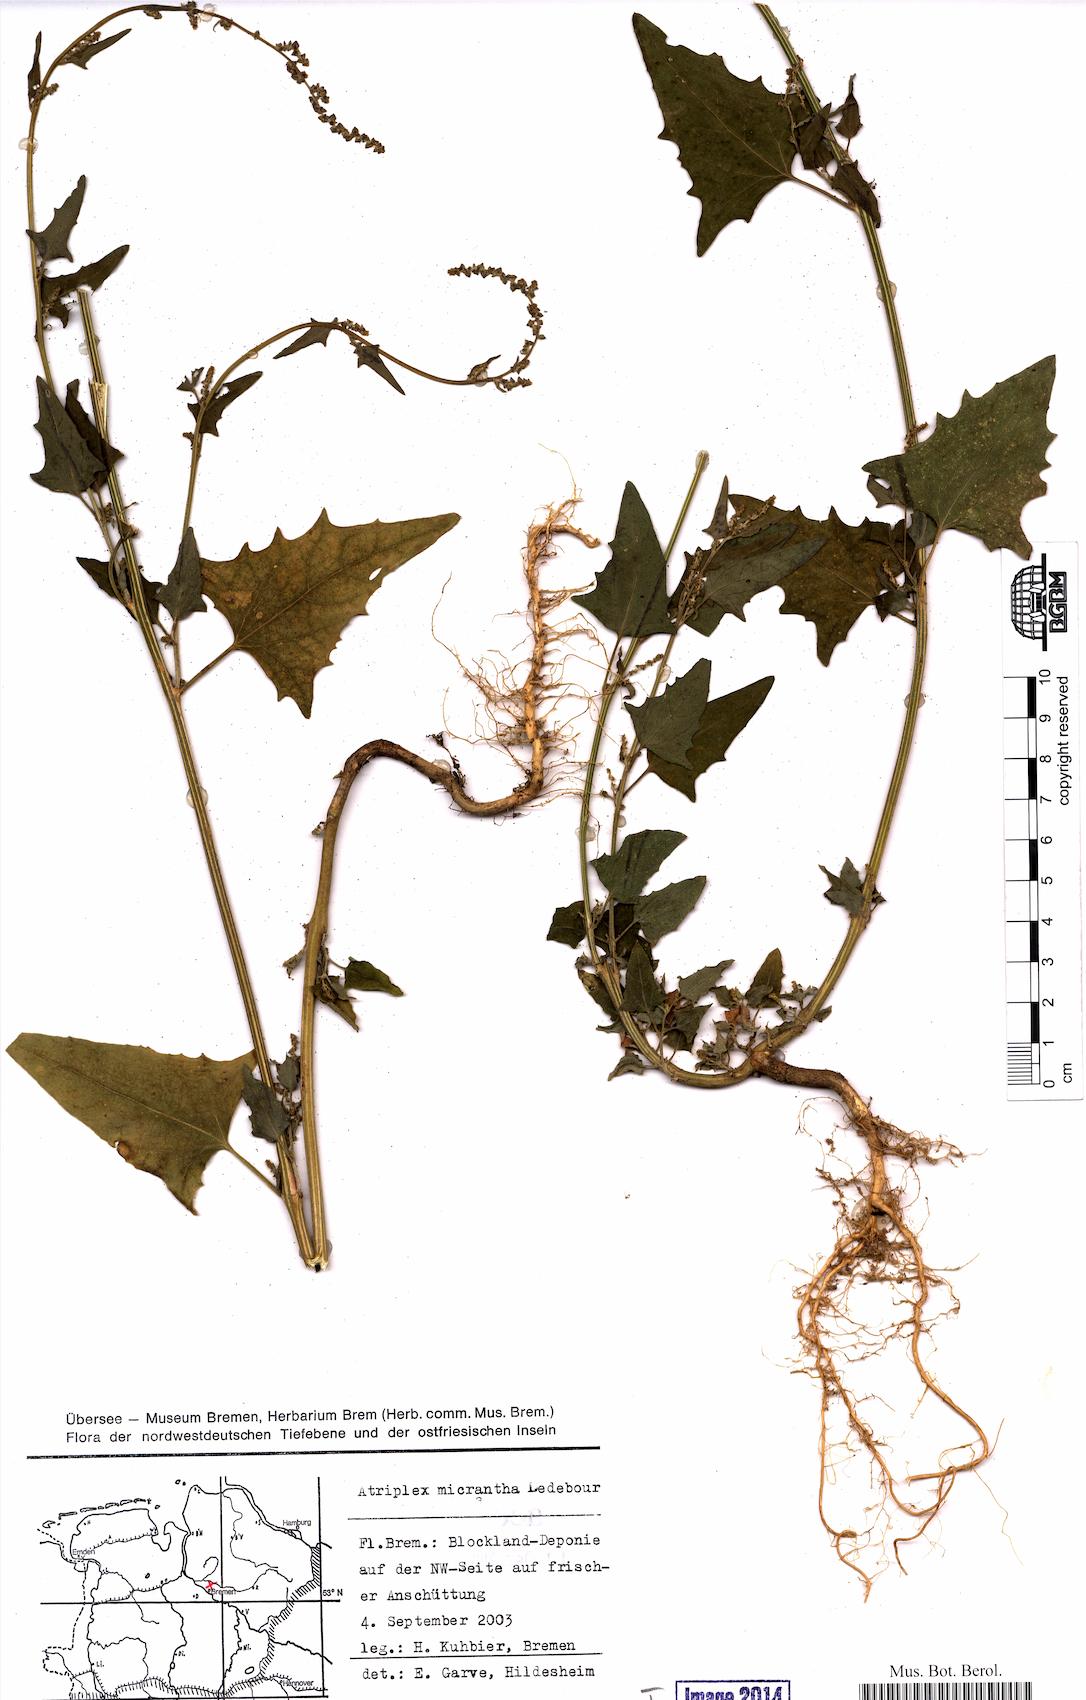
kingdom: Plantae
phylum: Tracheophyta
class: Magnoliopsida
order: Caryophyllales
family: Amaranthaceae
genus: Atriplex
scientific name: Atriplex micrantha
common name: Twoscale saltbush
